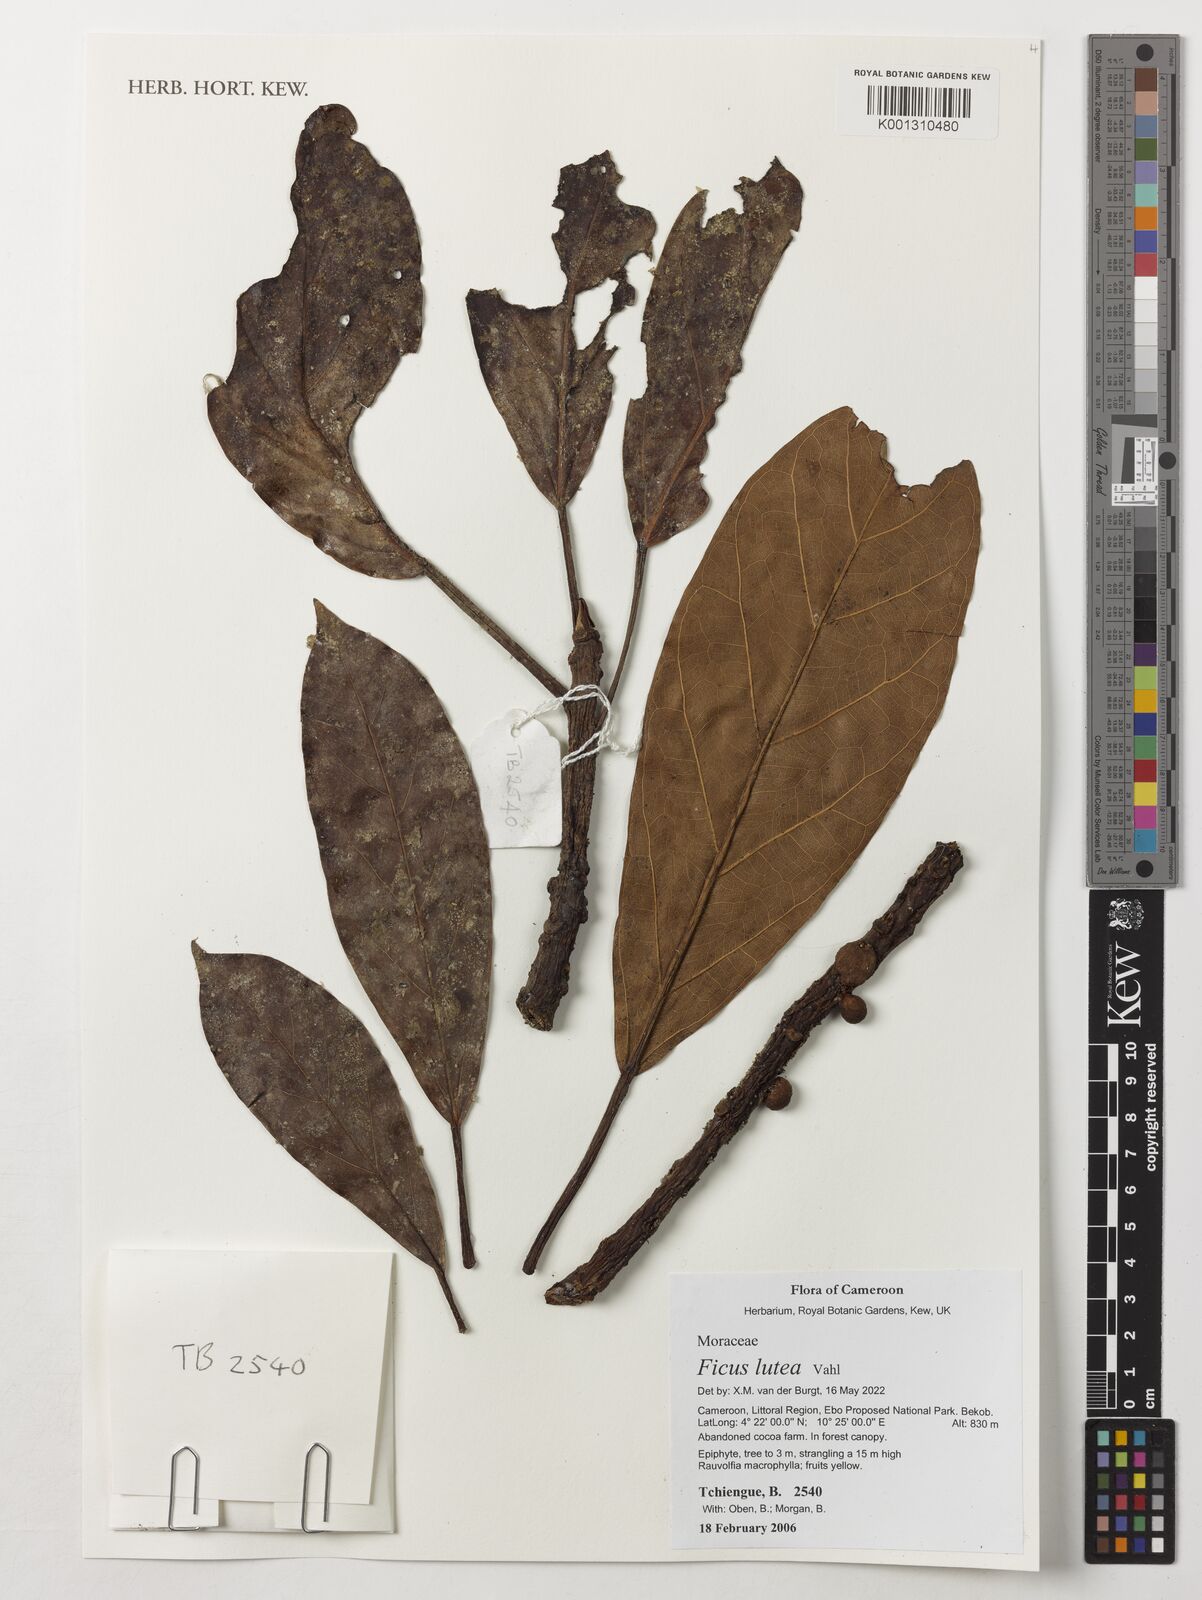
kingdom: Plantae
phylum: Tracheophyta
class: Magnoliopsida
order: Rosales
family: Moraceae
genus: Ficus
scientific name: Ficus lutea
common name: Giant-leaved fig
